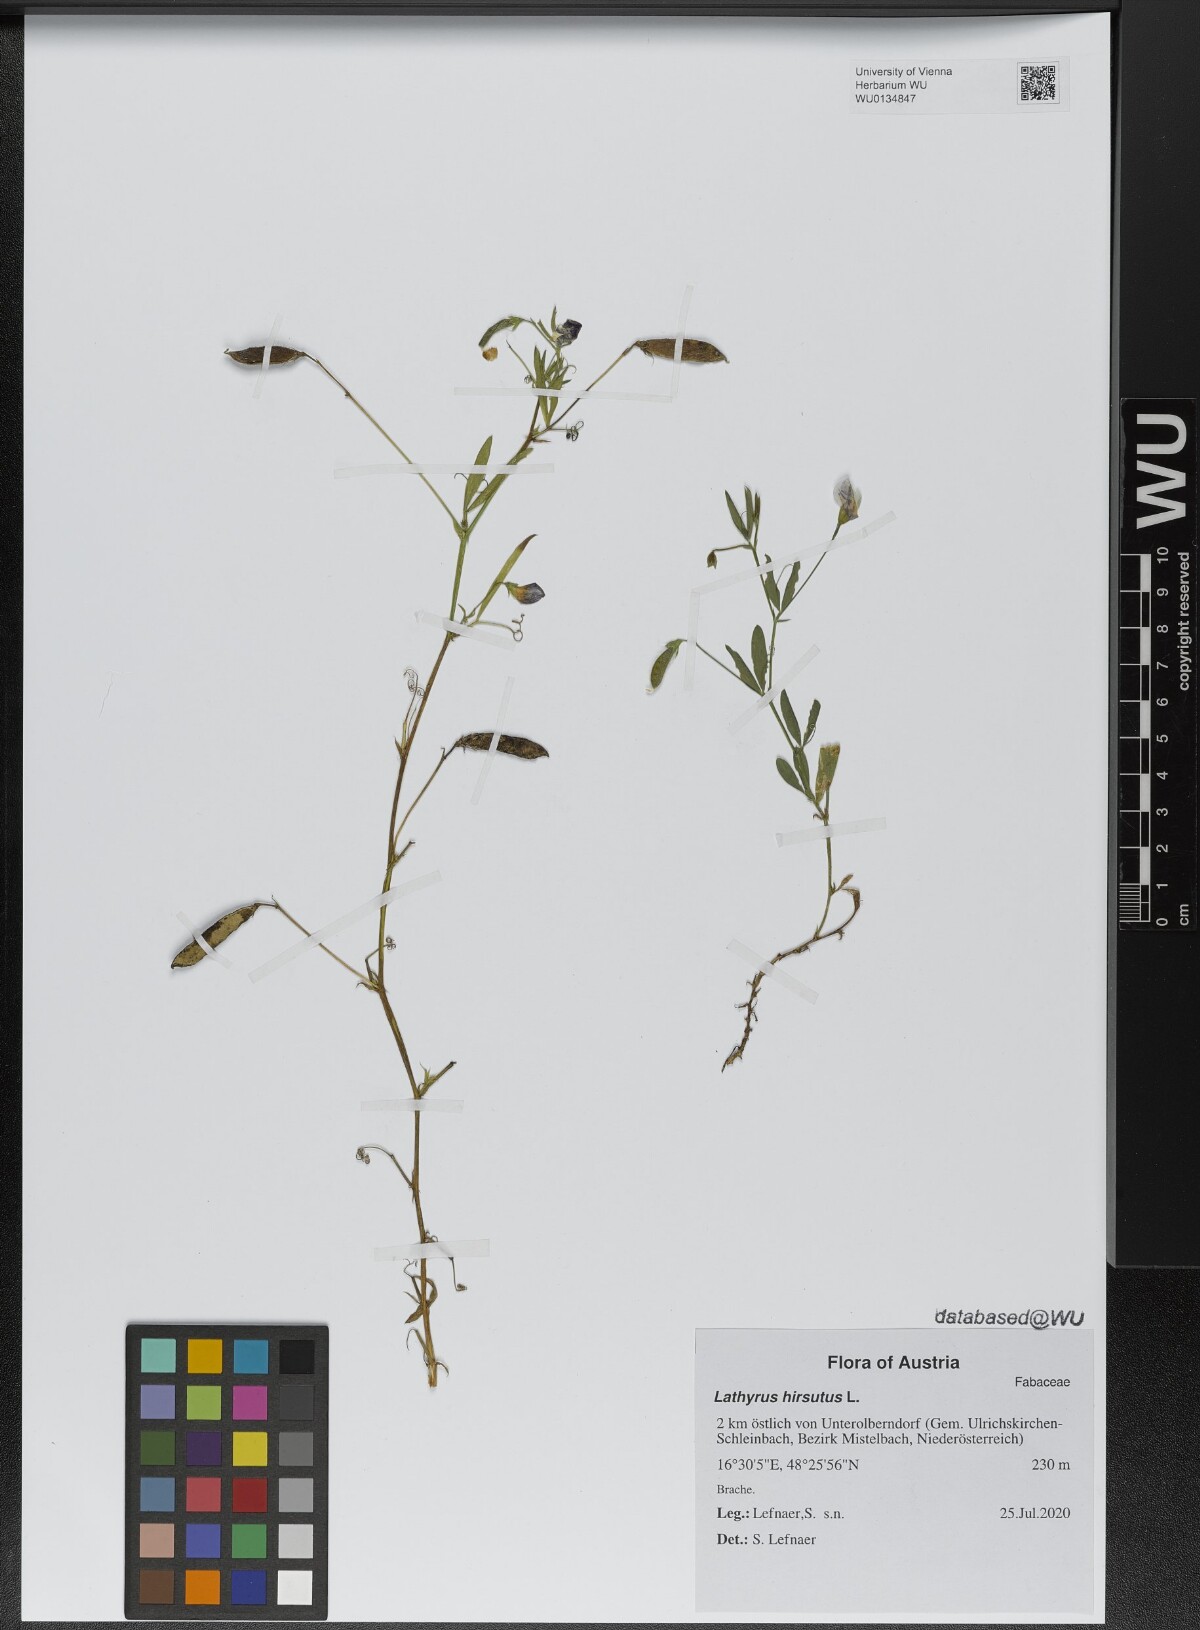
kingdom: Plantae
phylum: Tracheophyta
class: Magnoliopsida
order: Fabales
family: Fabaceae
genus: Lathyrus
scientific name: Lathyrus hirsutus
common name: Hairy vetchling
